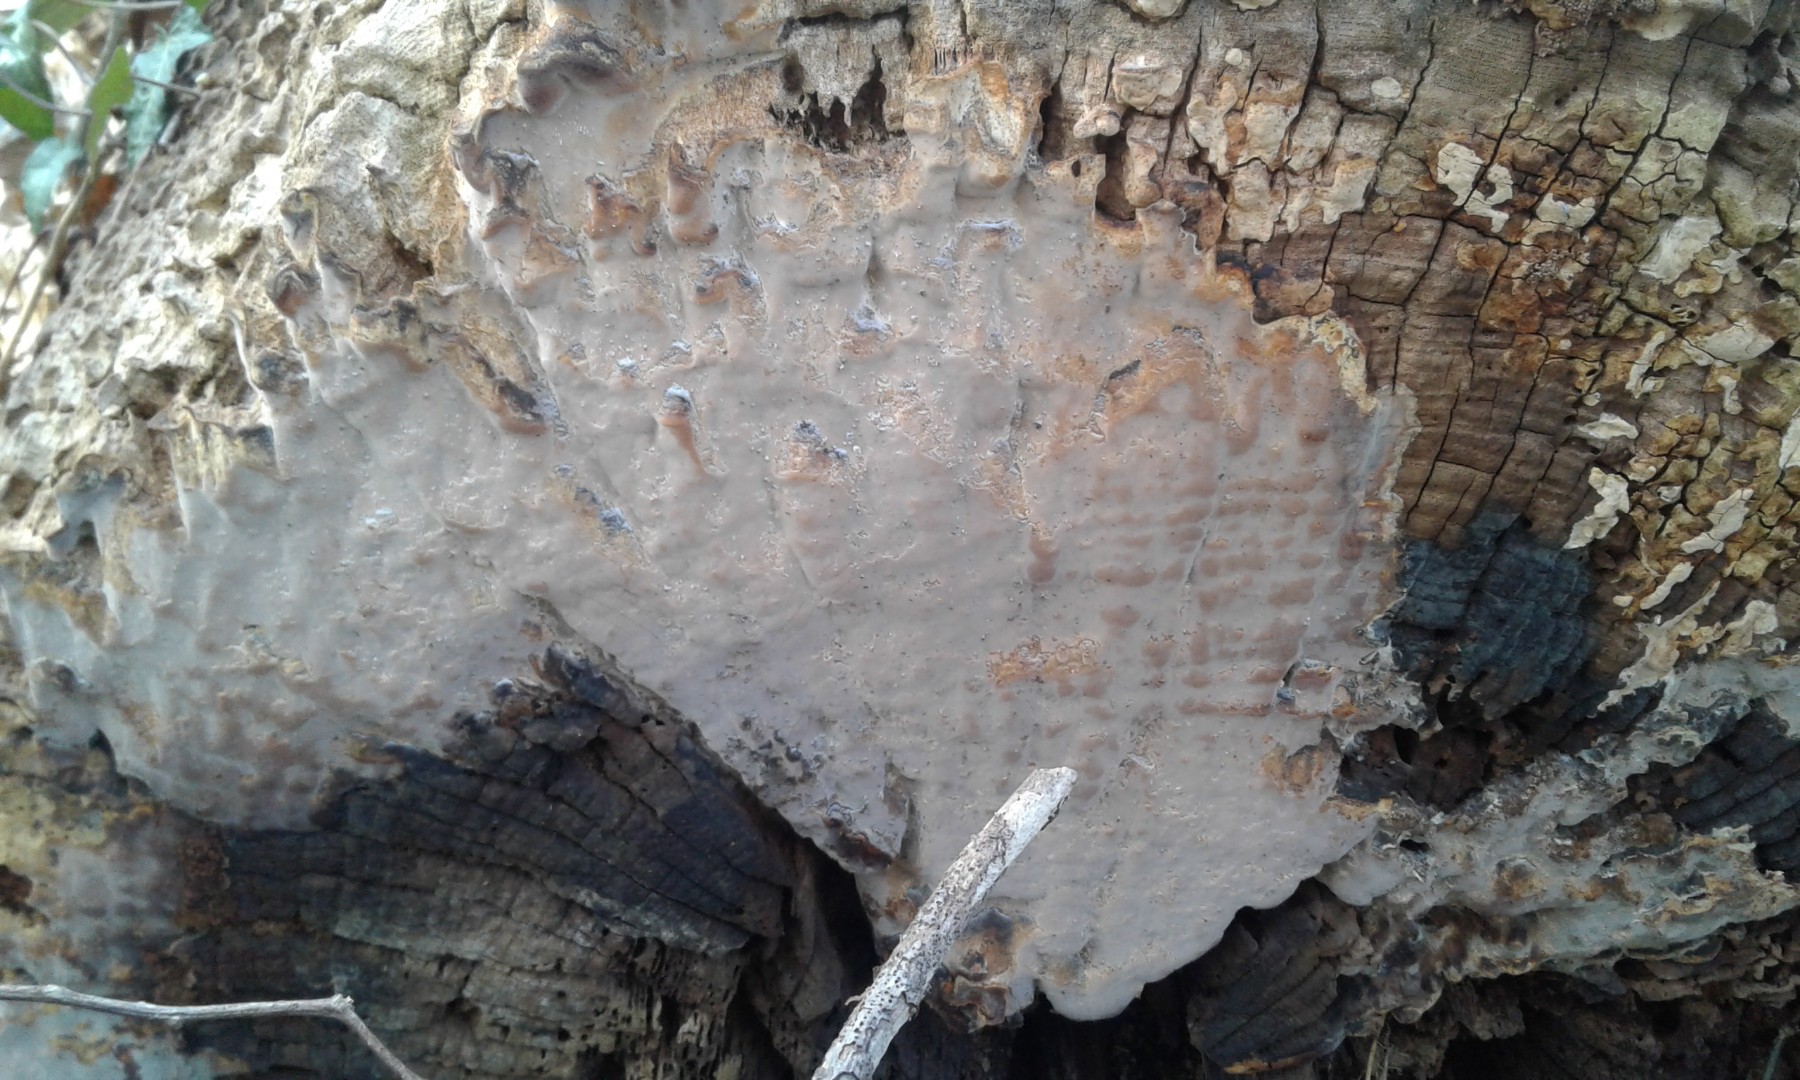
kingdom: Fungi
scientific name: Fungi
